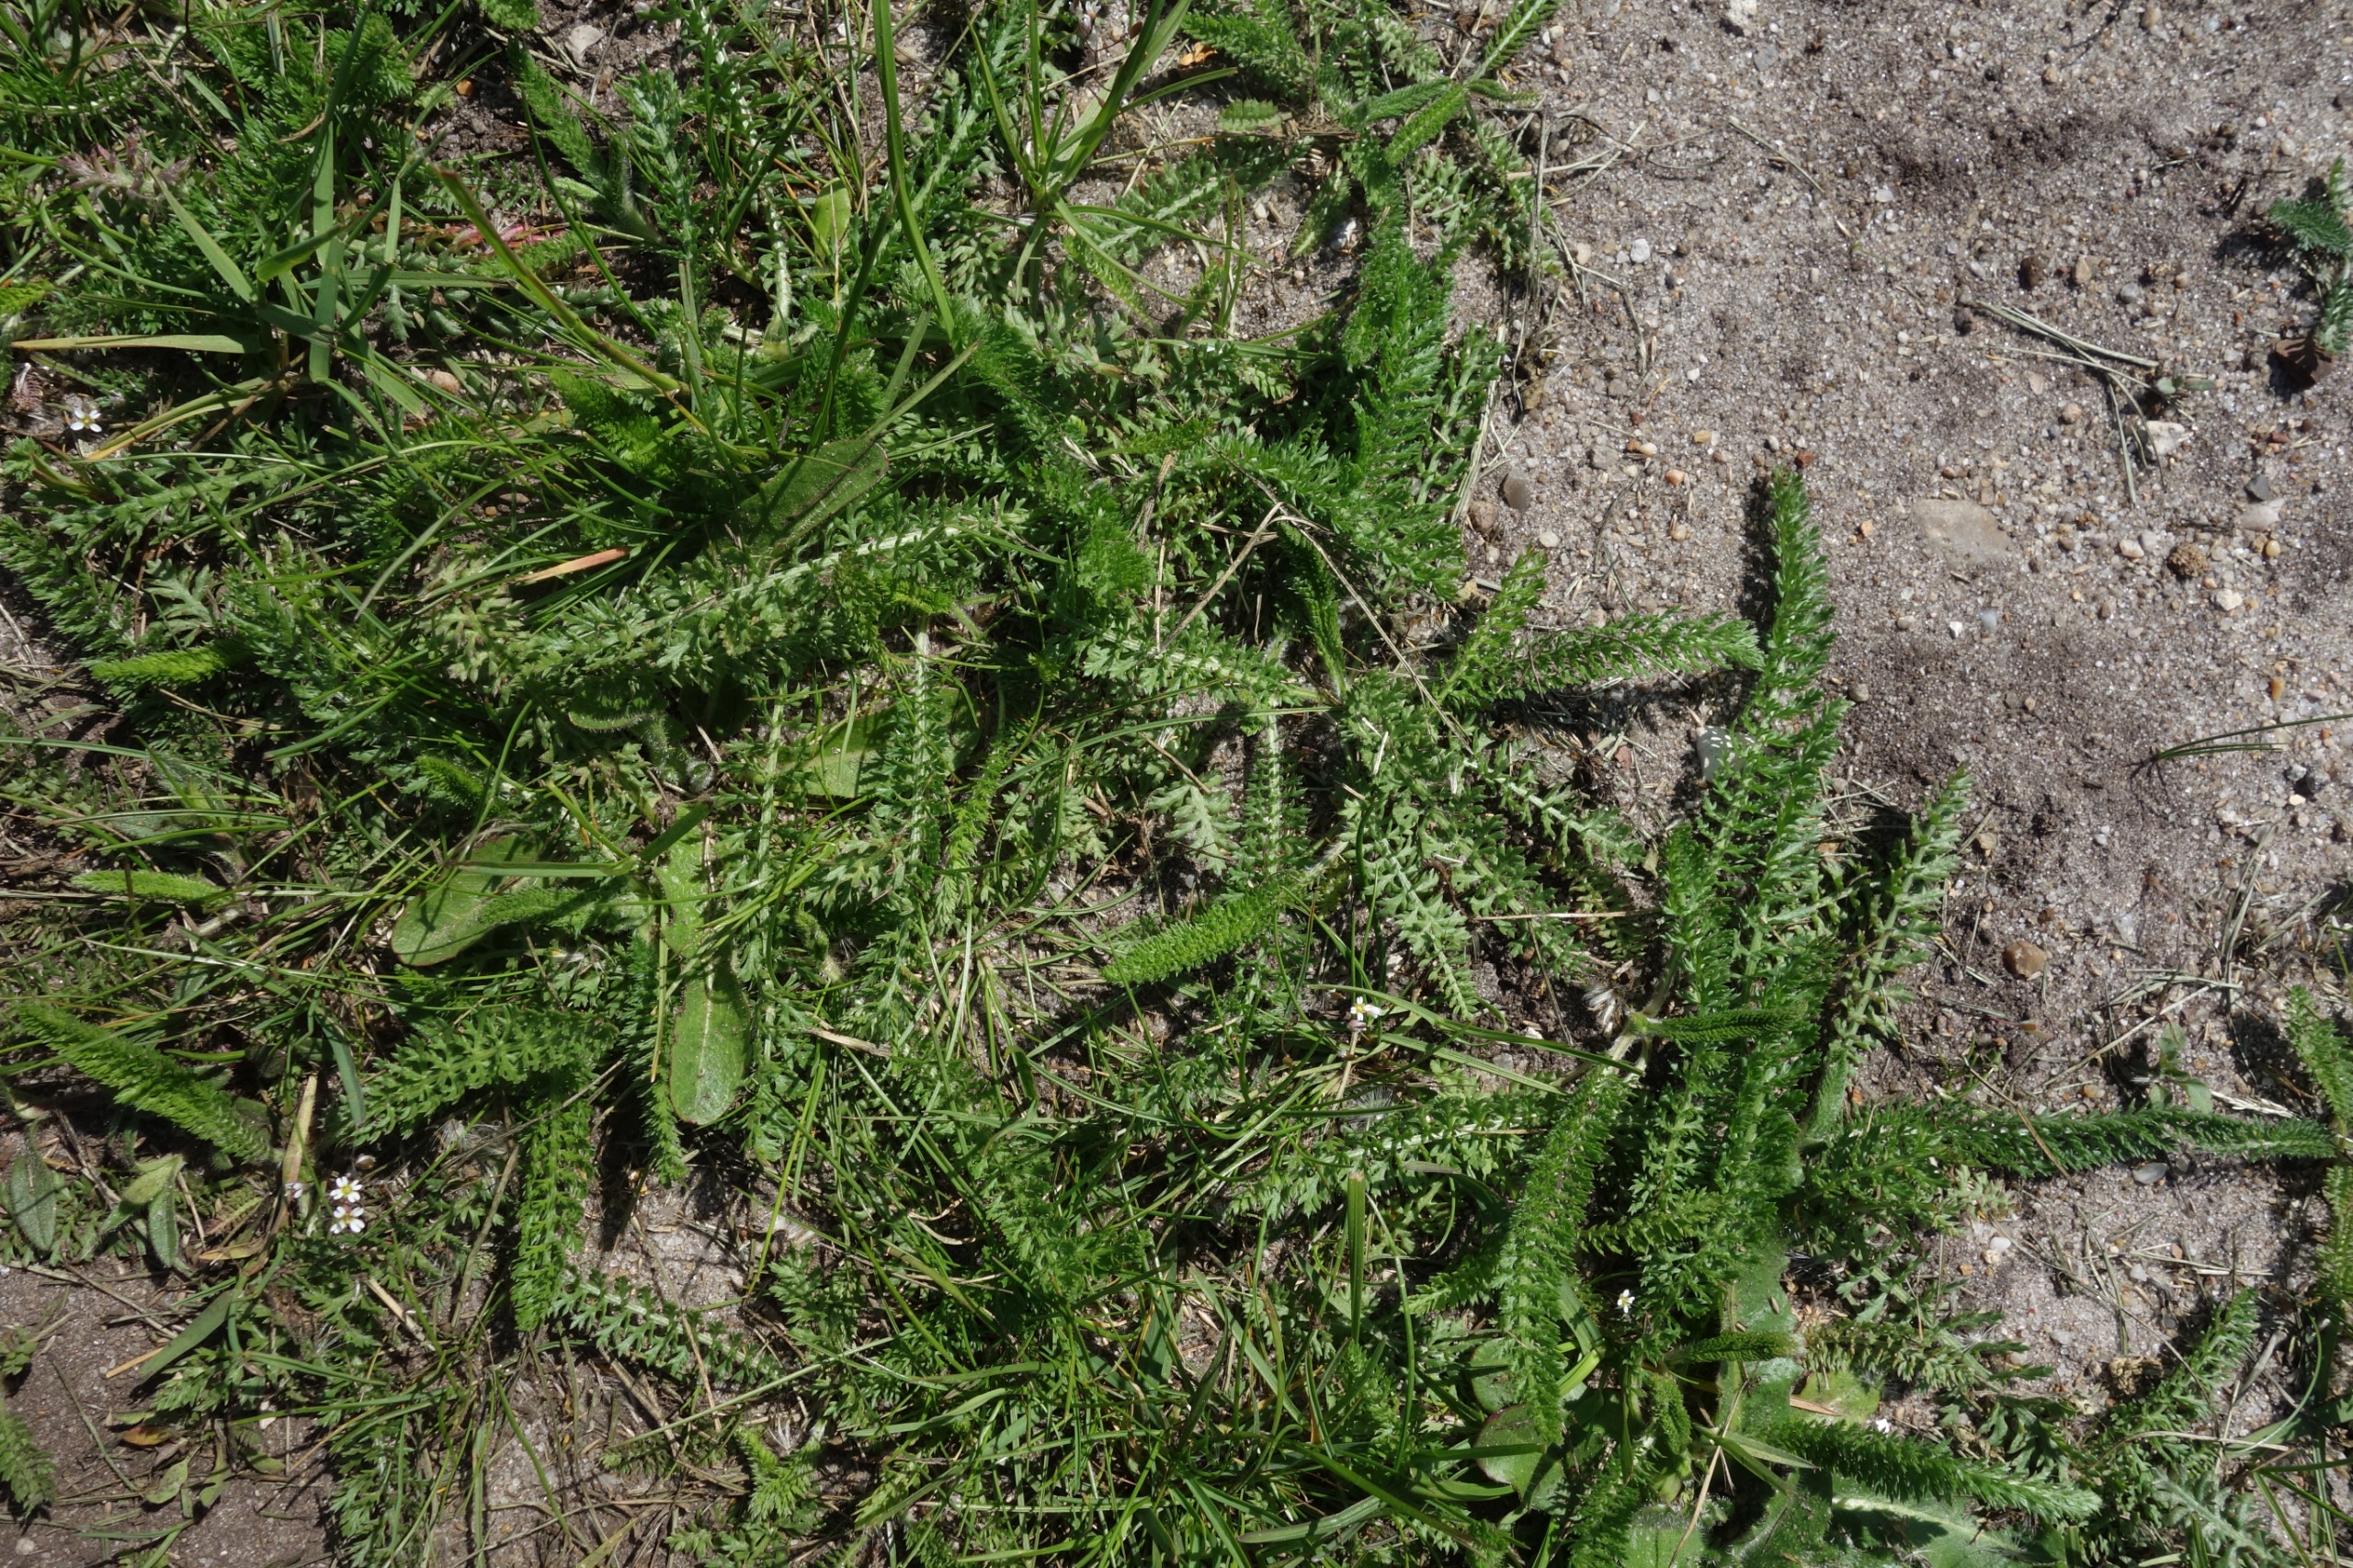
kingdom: Plantae
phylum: Tracheophyta
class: Magnoliopsida
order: Asterales
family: Asteraceae
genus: Achillea
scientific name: Achillea millefolium
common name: Almindelig røllike
